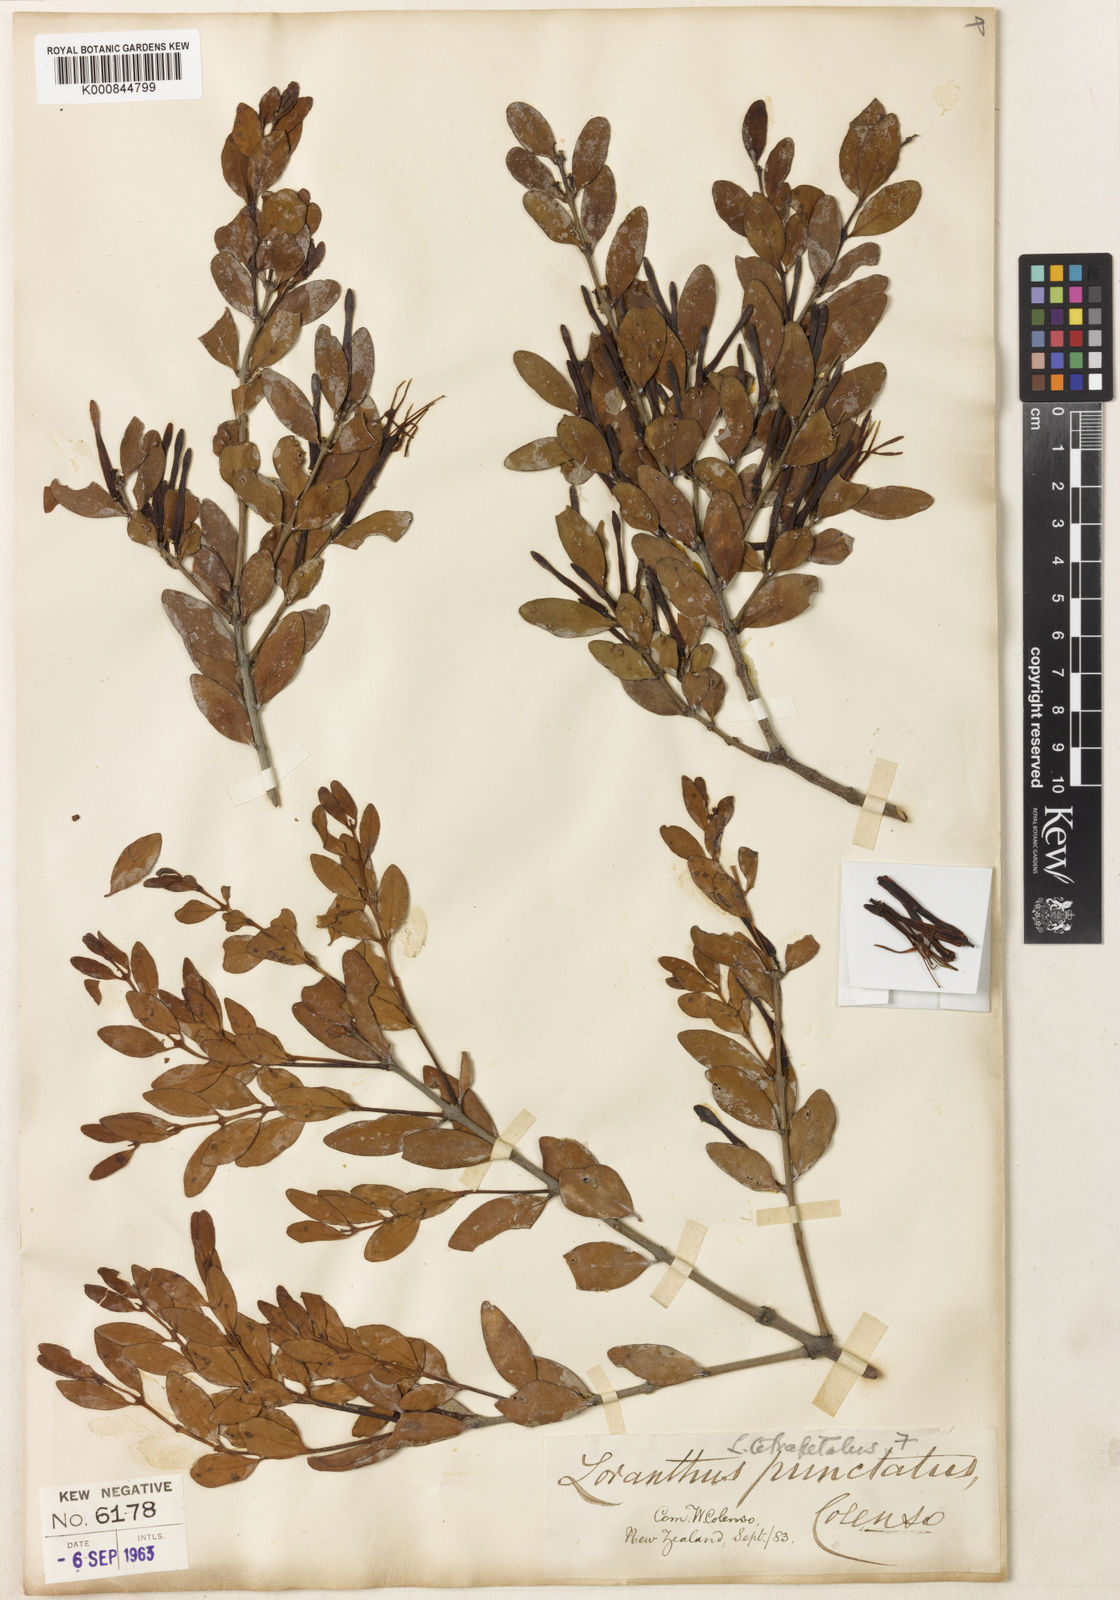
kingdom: Plantae
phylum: Tracheophyta
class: Magnoliopsida
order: Santalales
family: Loranthaceae
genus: Peraxilla
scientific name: Peraxilla tetrapetala
